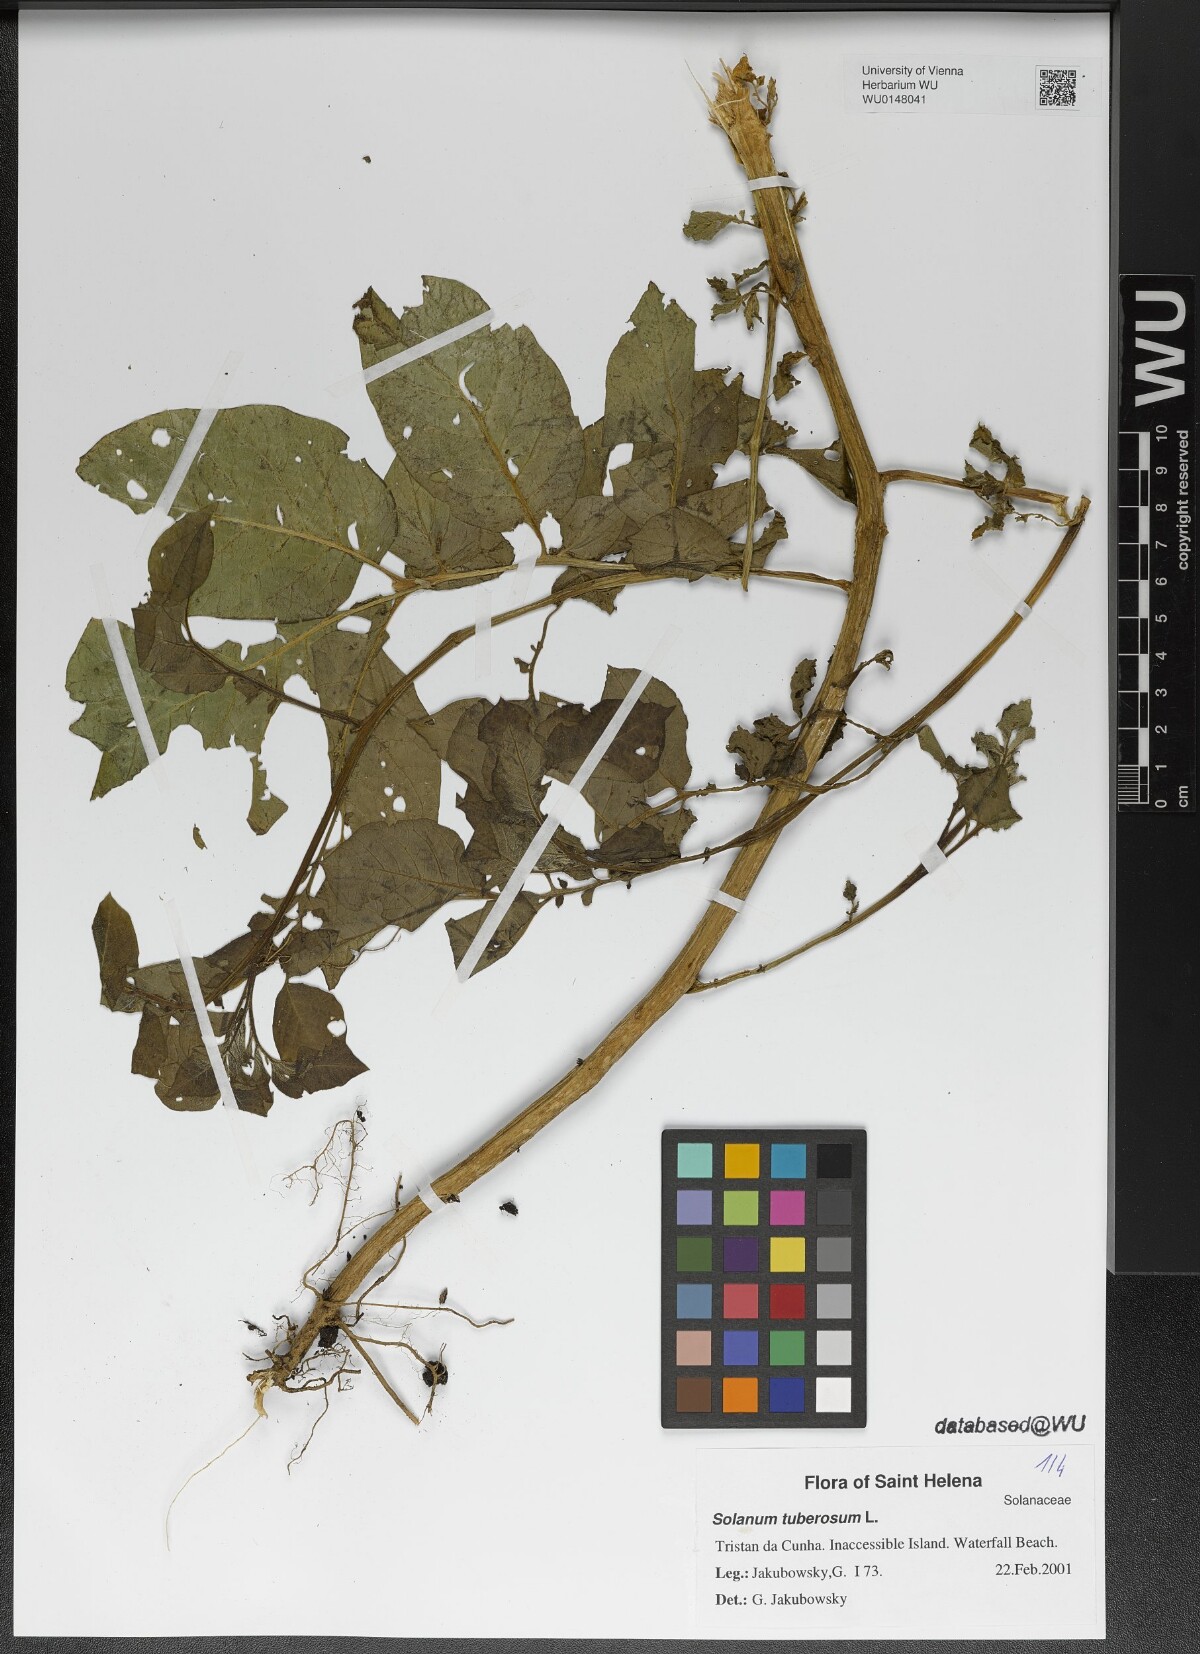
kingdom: Plantae
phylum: Tracheophyta
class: Magnoliopsida
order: Solanales
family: Solanaceae
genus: Solanum
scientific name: Solanum tuberosum
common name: Potato
